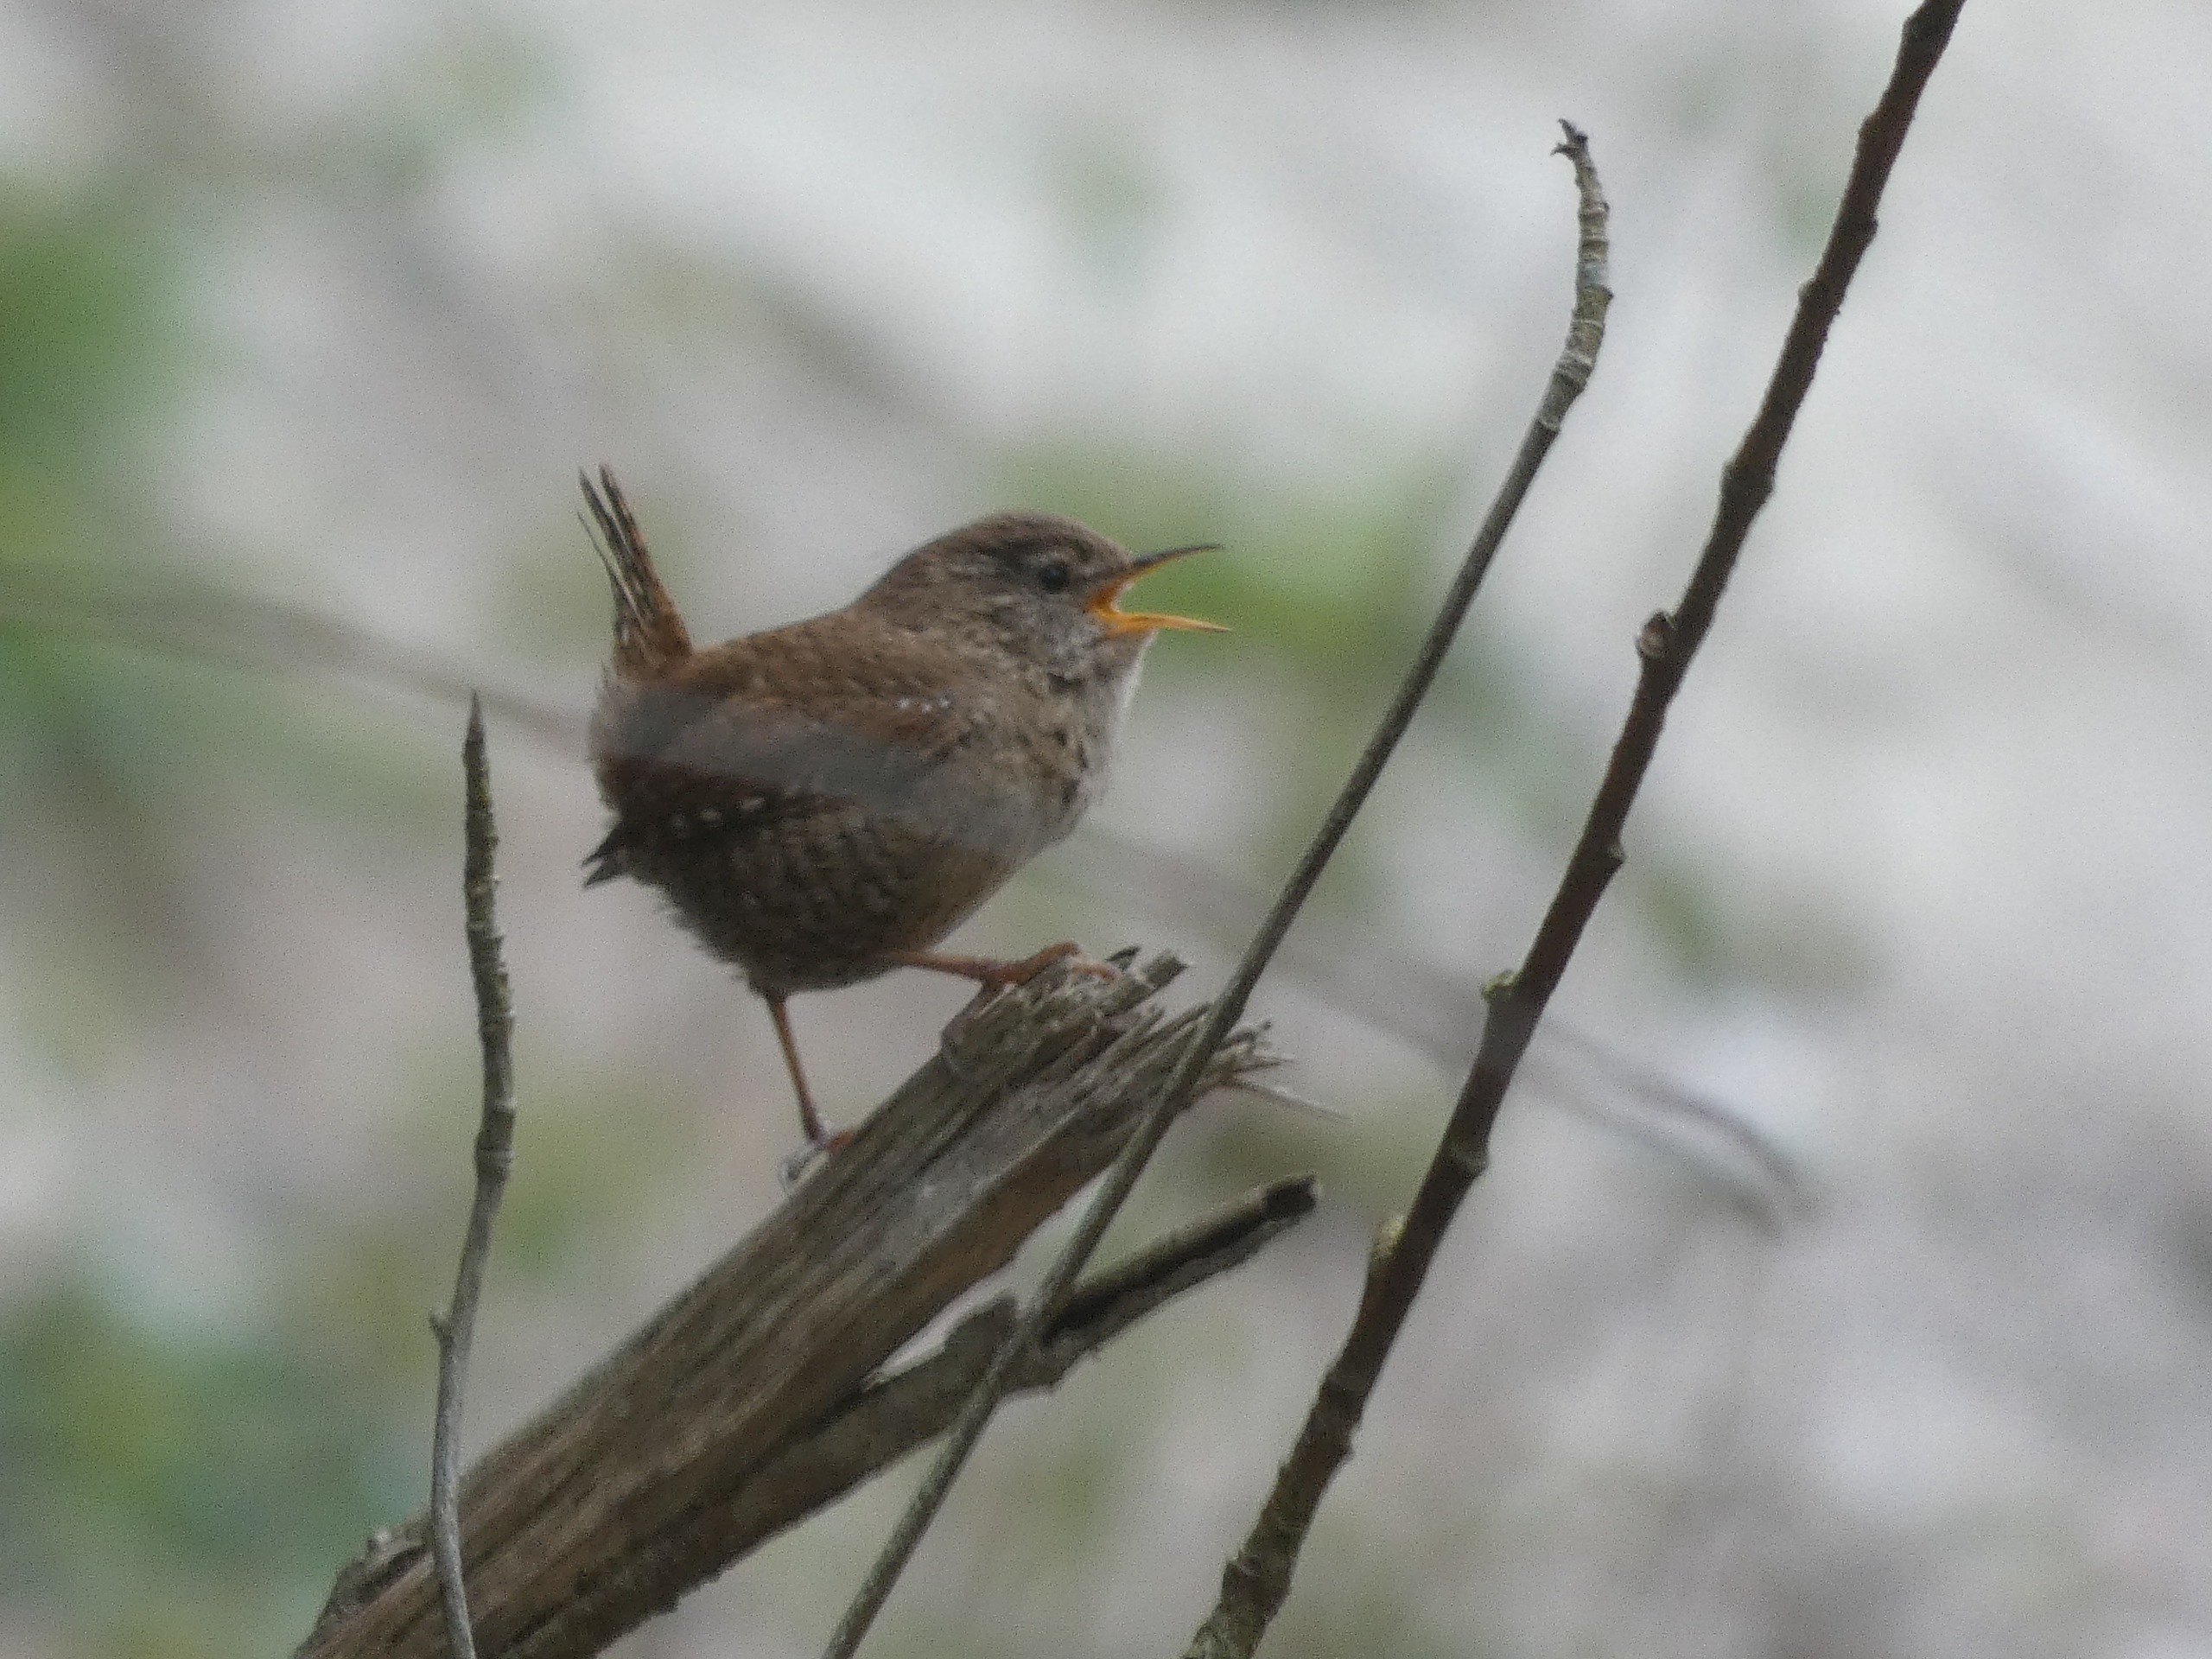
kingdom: Animalia
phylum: Chordata
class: Aves
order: Passeriformes
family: Troglodytidae
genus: Troglodytes
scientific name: Troglodytes troglodytes
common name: Gærdesmutte
